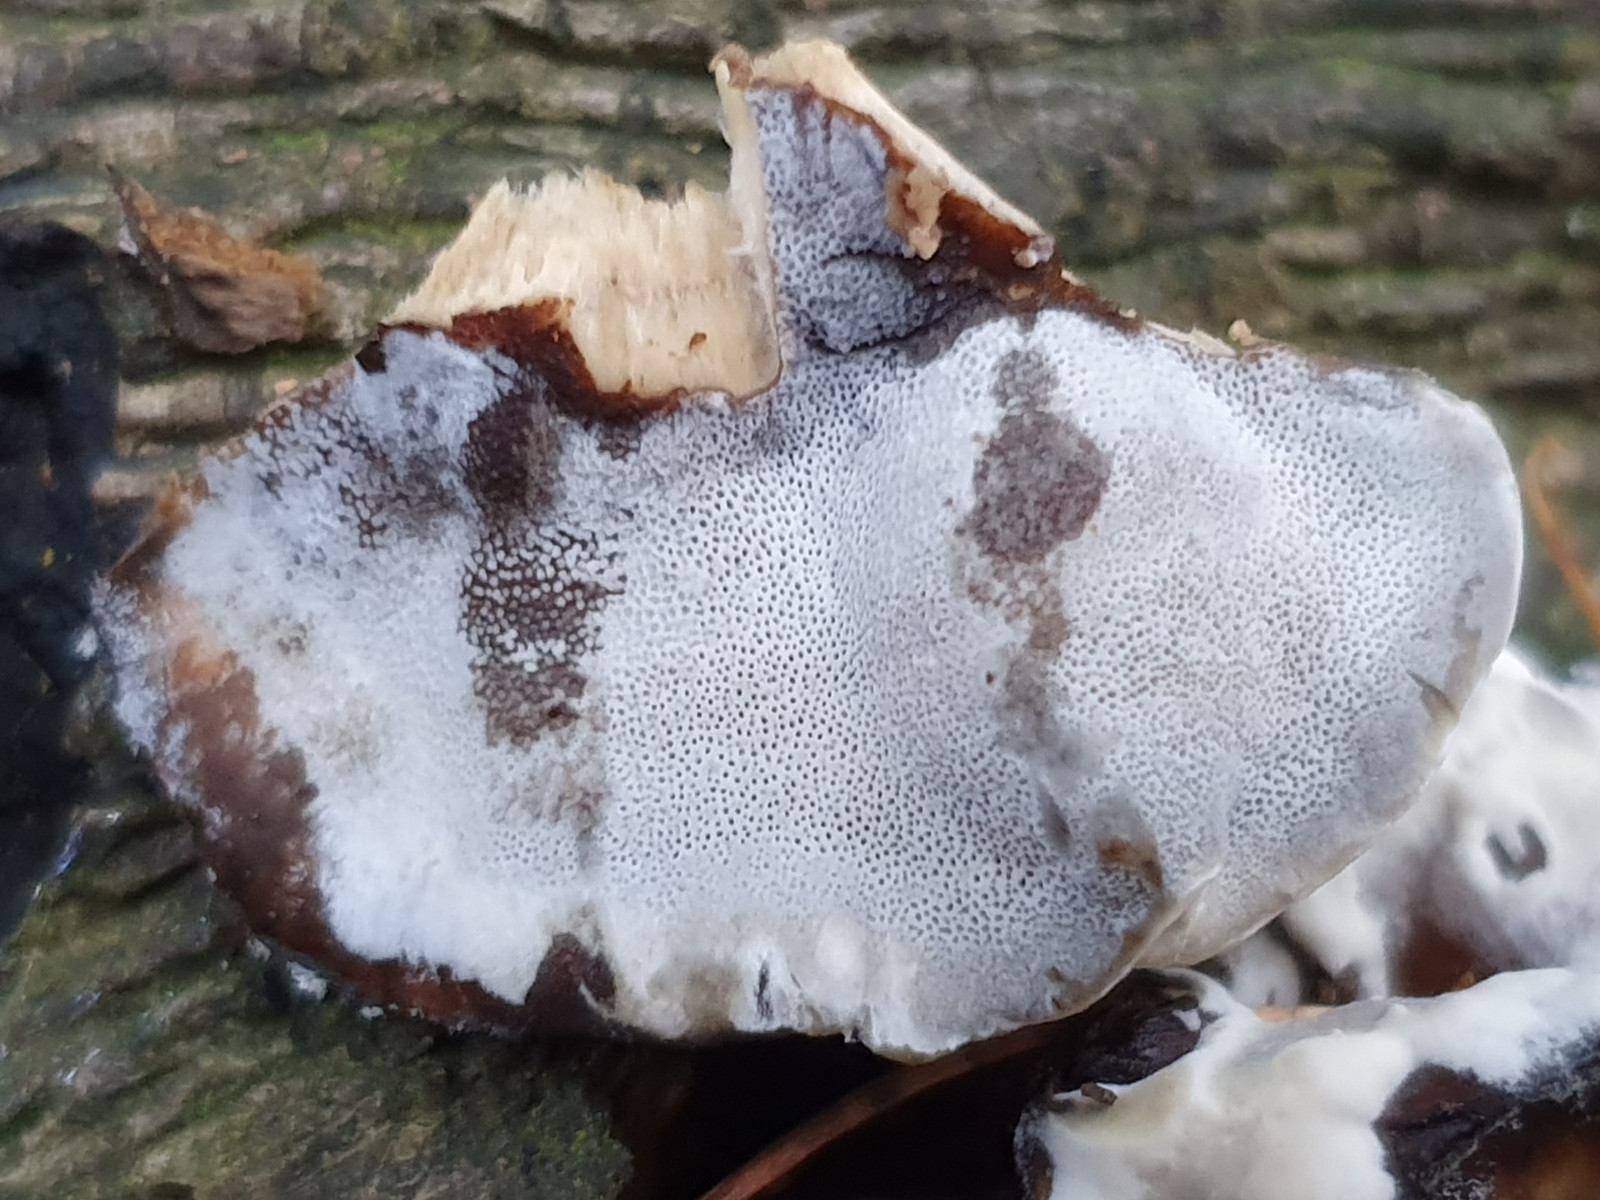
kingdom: Fungi
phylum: Basidiomycota
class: Agaricomycetes
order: Polyporales
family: Phanerochaetaceae
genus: Bjerkandera
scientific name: Bjerkandera adusta
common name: sveden sodporesvamp
